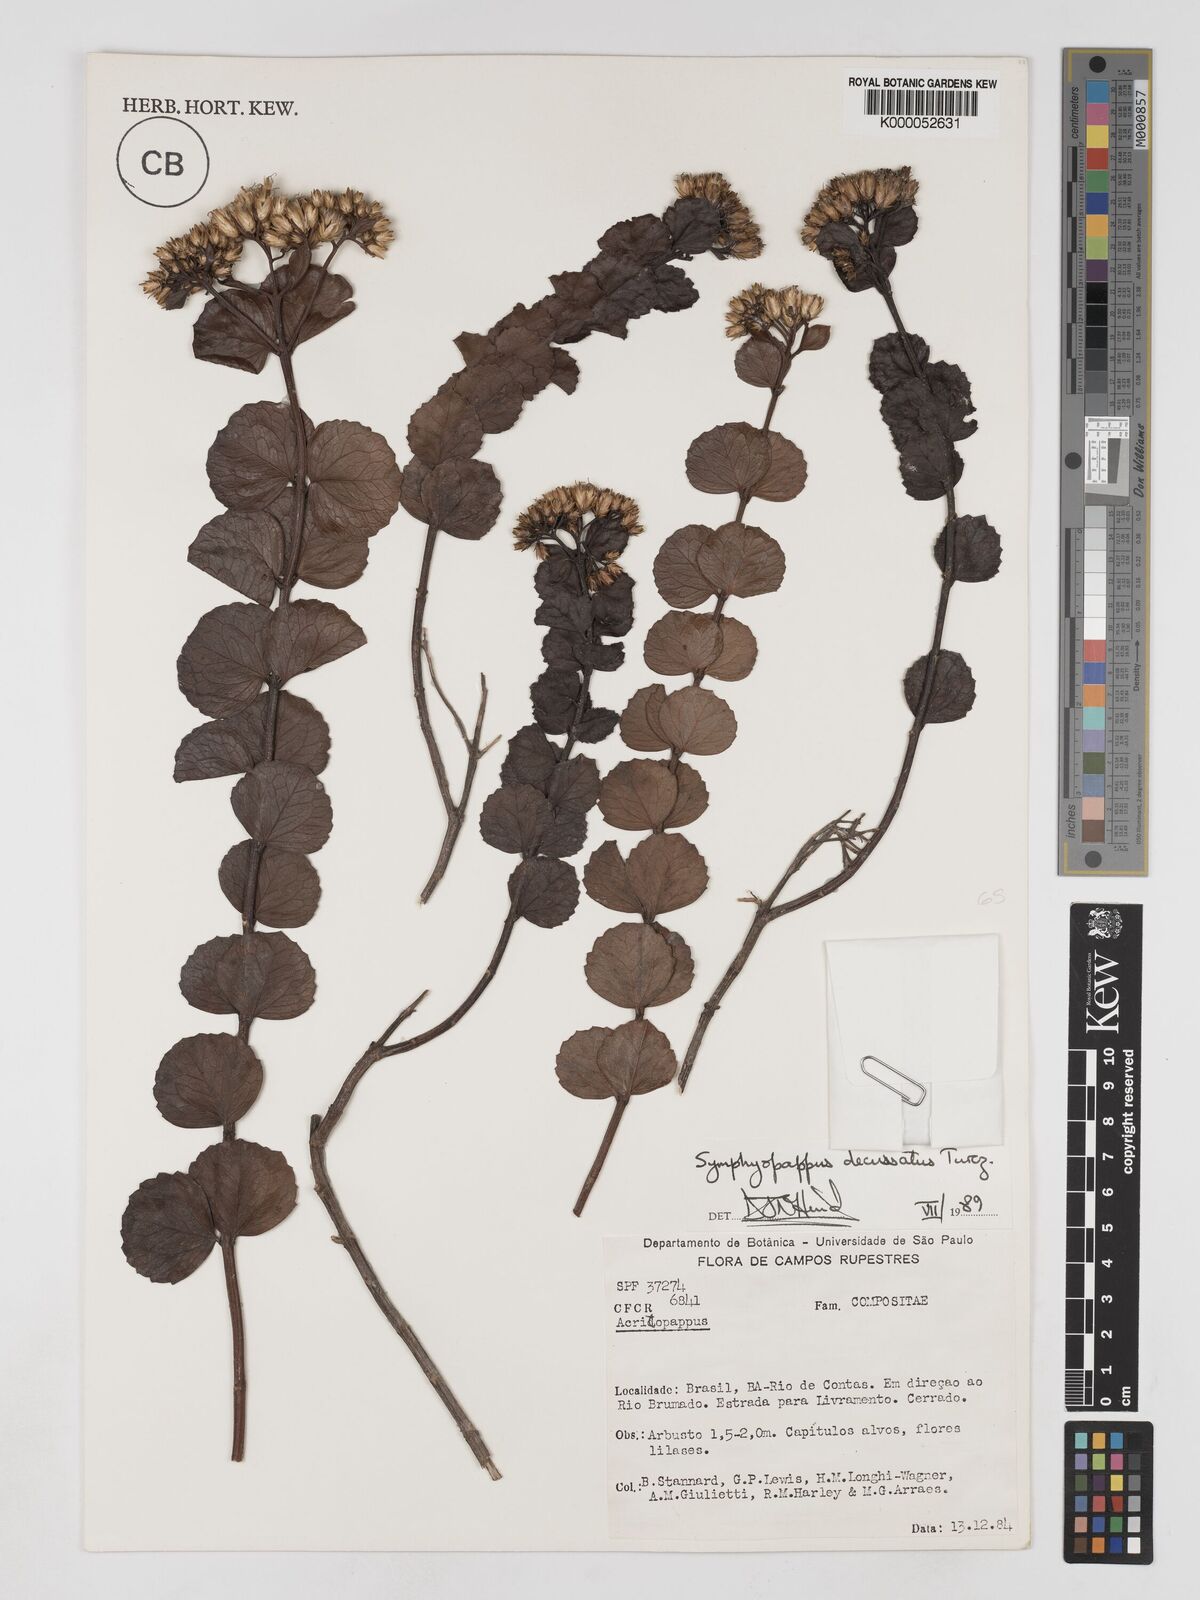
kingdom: Plantae
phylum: Tracheophyta
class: Magnoliopsida
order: Asterales
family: Asteraceae
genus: Symphyopappus
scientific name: Symphyopappus decussatus
